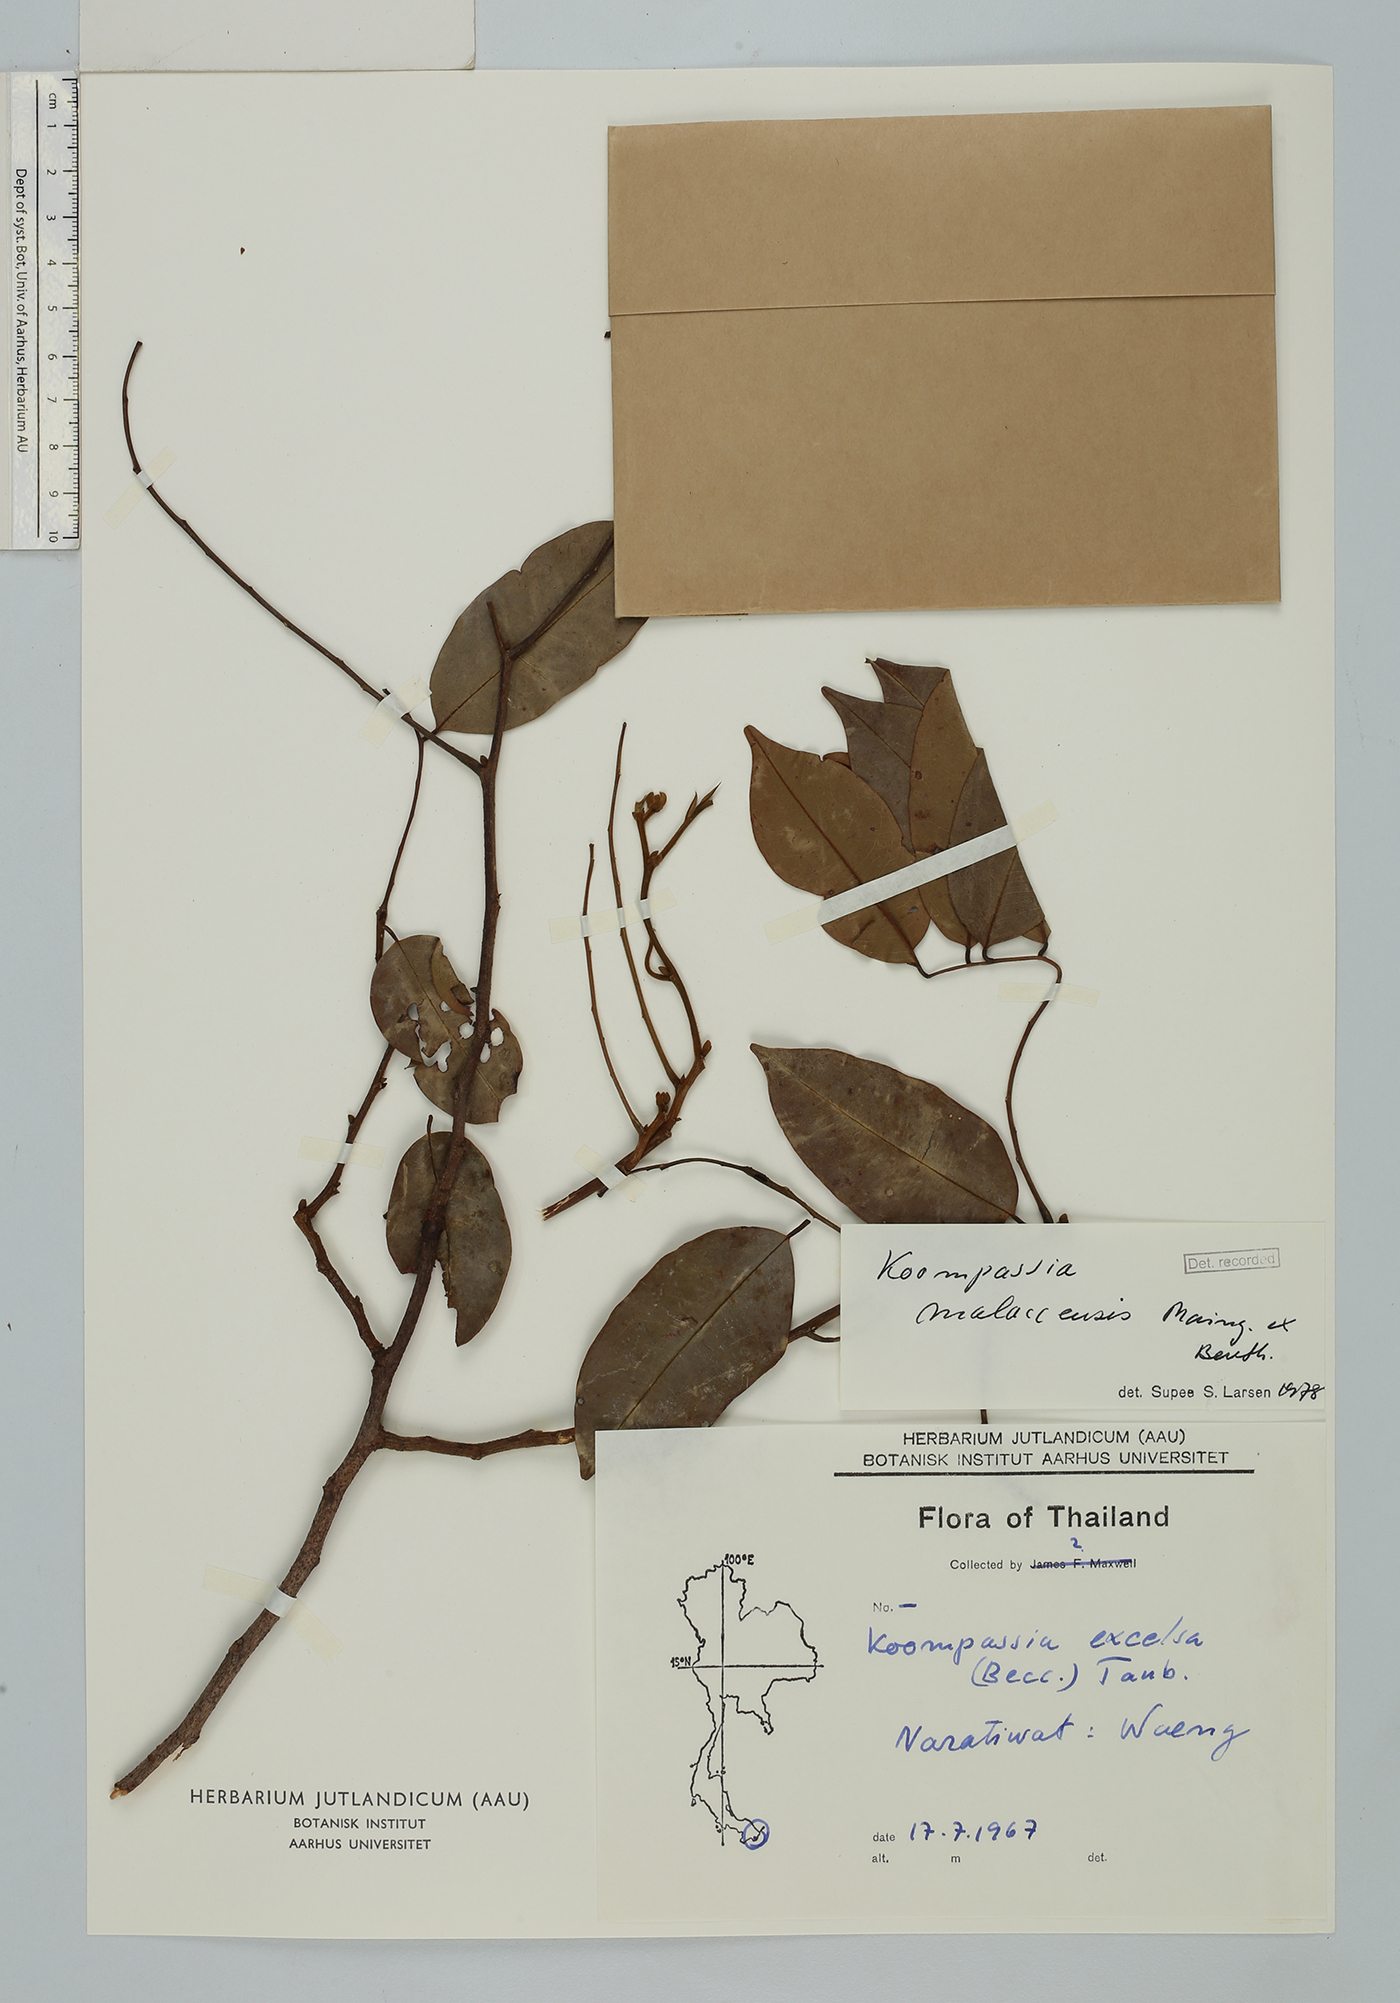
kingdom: Plantae
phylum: Tracheophyta
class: Magnoliopsida
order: Fabales
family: Fabaceae
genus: Koompassia
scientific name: Koompassia malaccensis
